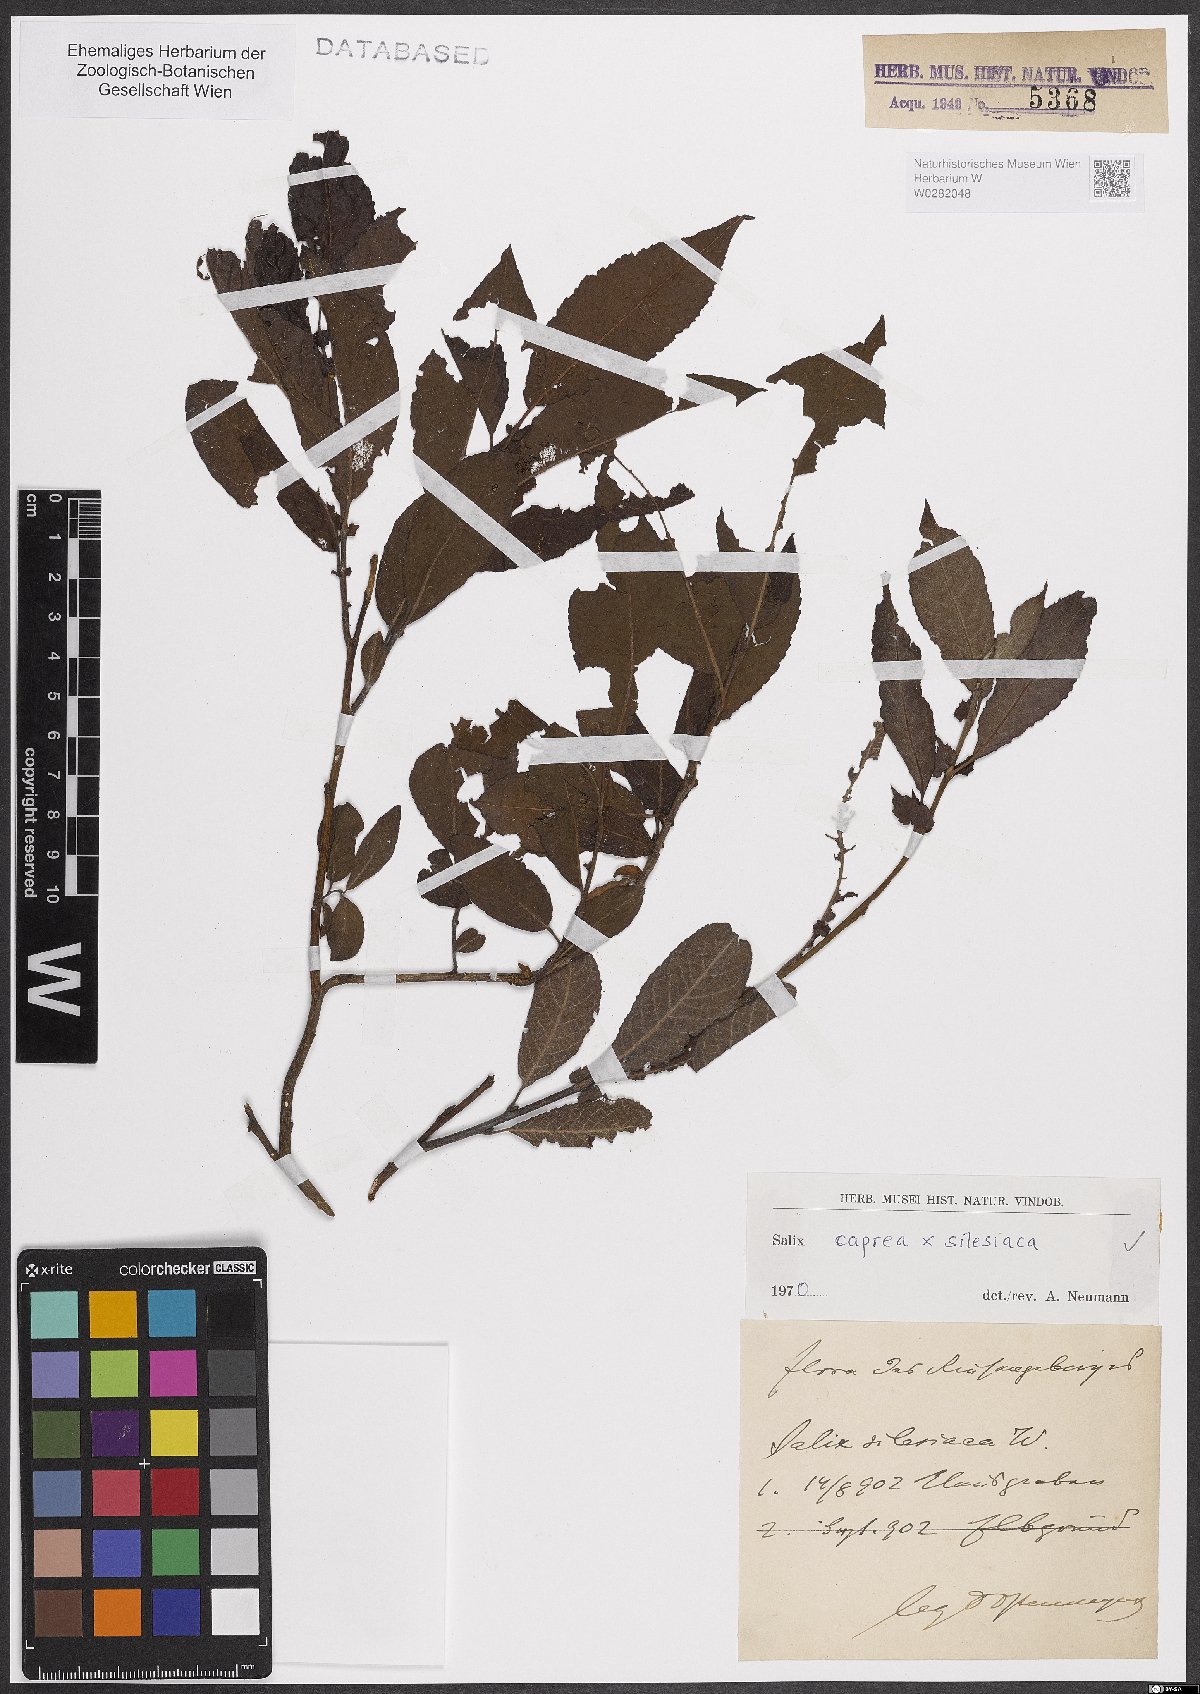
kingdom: Plantae
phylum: Tracheophyta
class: Magnoliopsida
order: Malpighiales
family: Salicaceae
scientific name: Salicaceae
